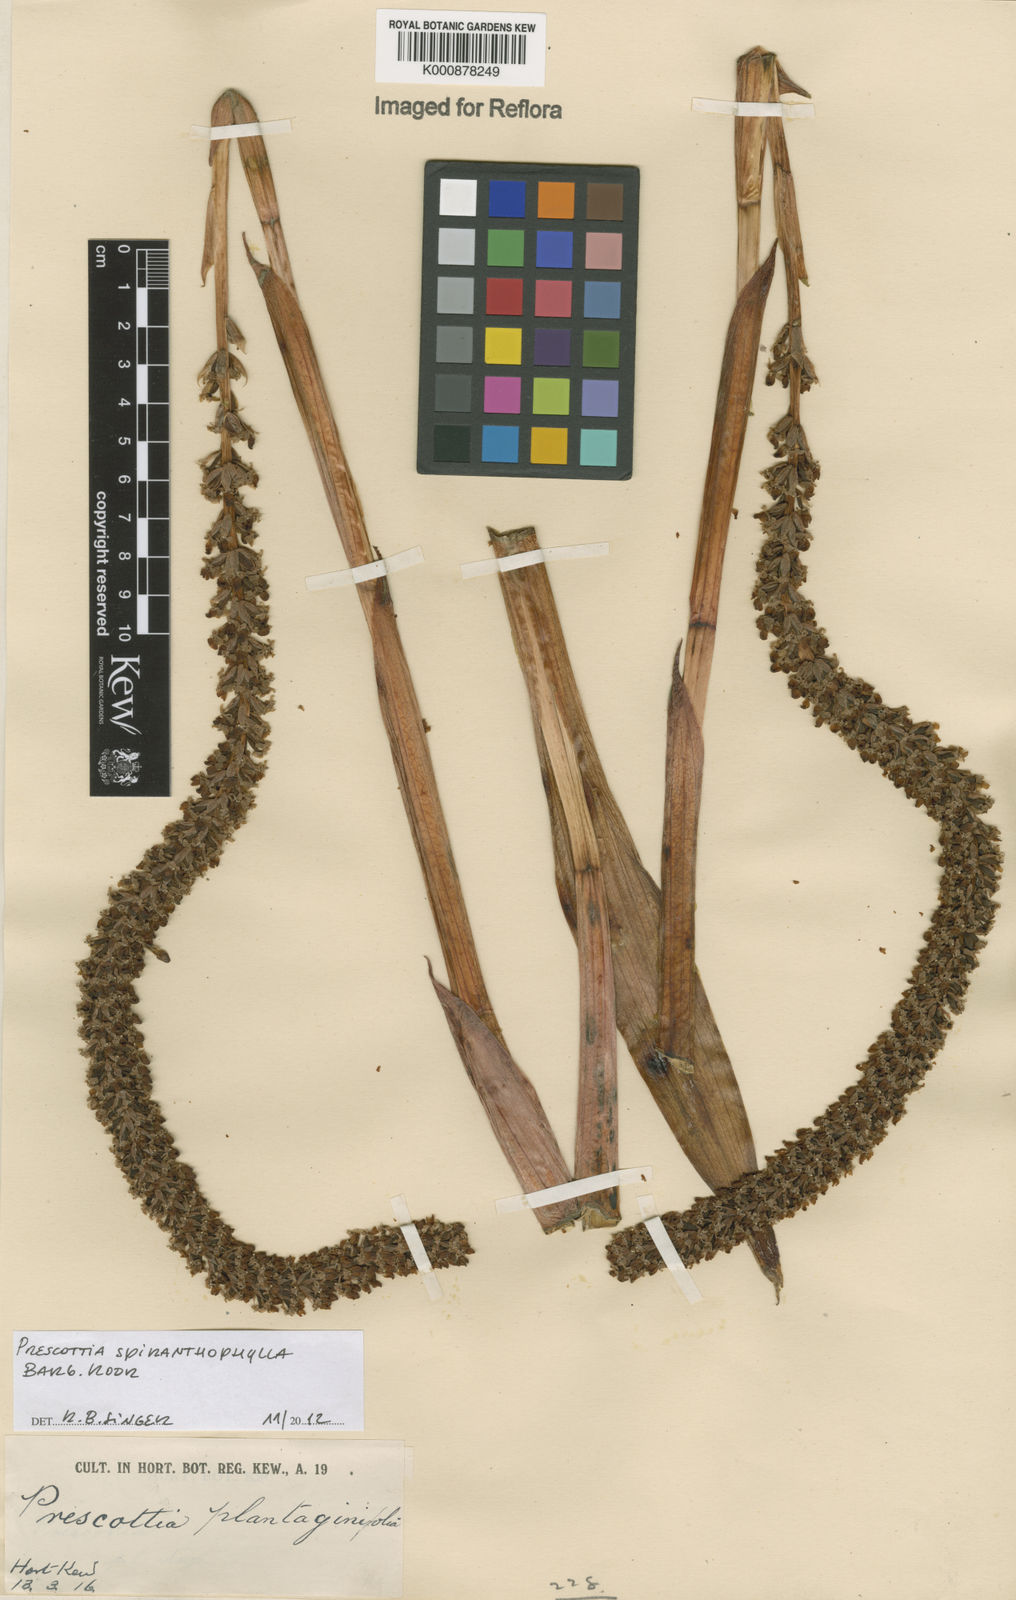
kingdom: Plantae
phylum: Tracheophyta
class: Liliopsida
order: Asparagales
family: Orchidaceae
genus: Prescottia
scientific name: Prescottia spiranthophylla
